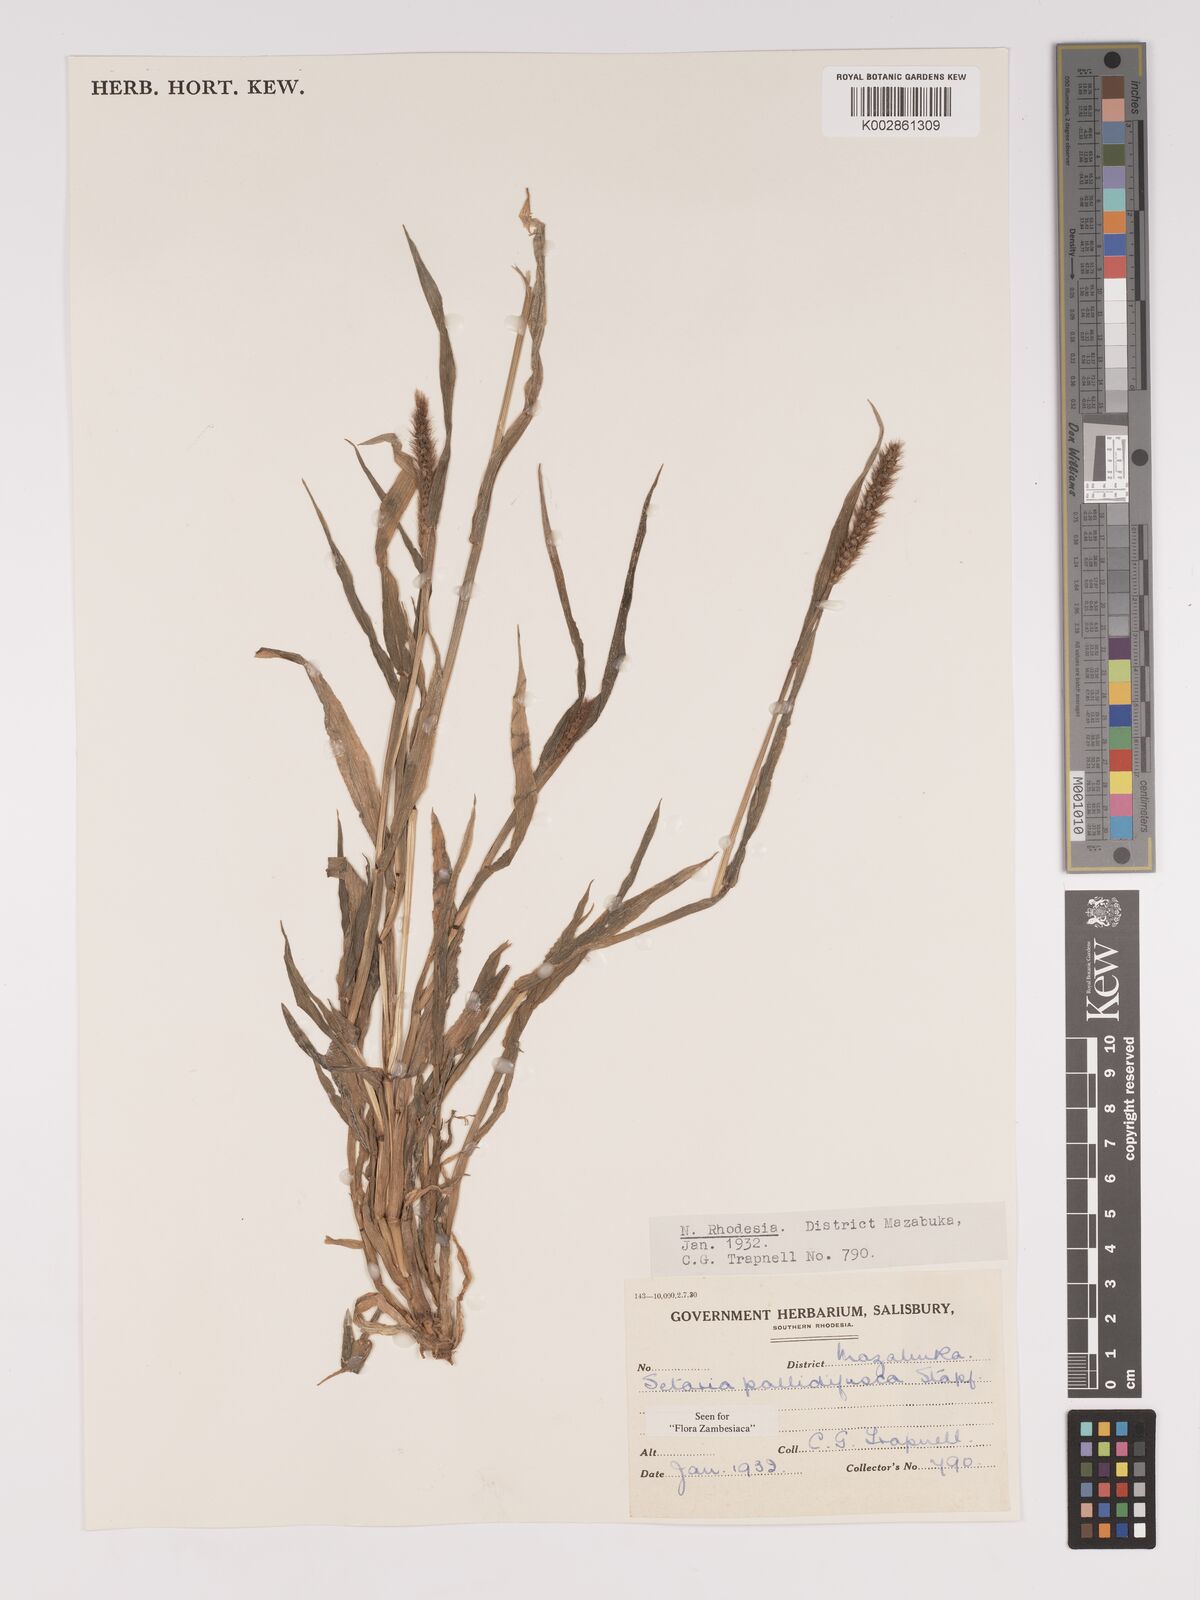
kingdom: Plantae
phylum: Tracheophyta
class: Liliopsida
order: Poales
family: Poaceae
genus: Setaria
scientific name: Setaria pumila
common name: Yellow bristle-grass
